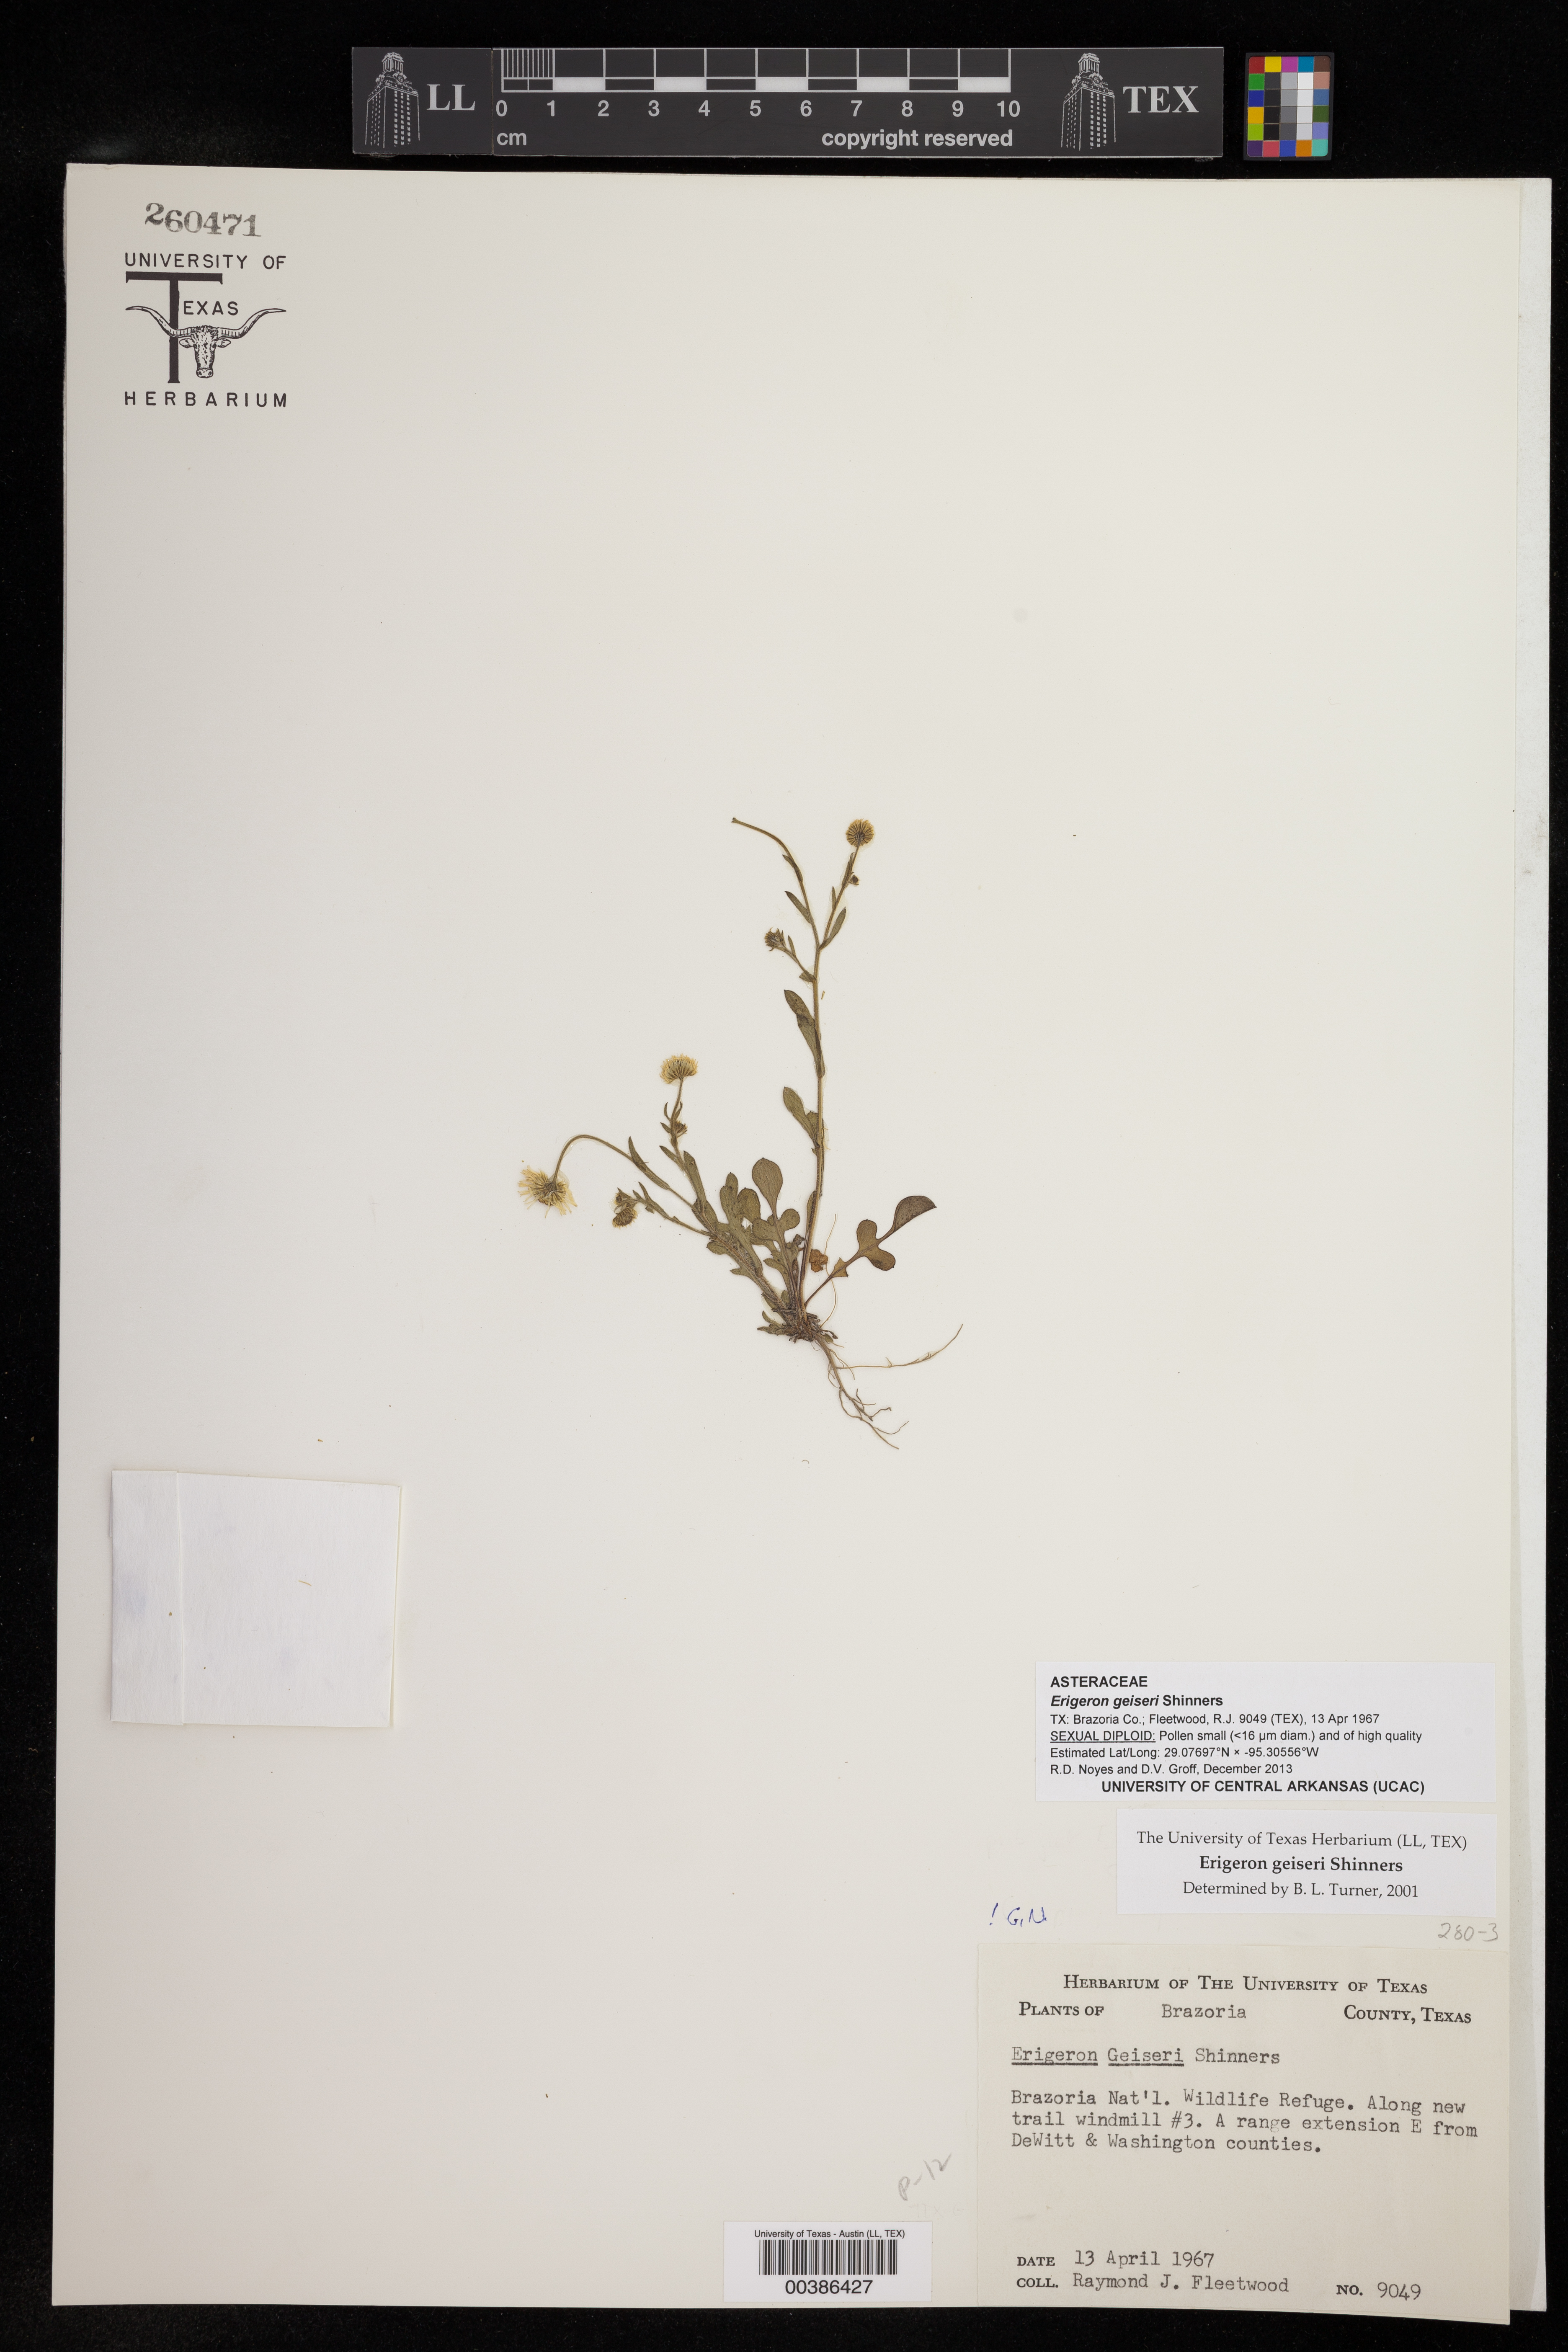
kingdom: Plantae
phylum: Tracheophyta
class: Magnoliopsida
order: Asterales
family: Asteraceae
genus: Erigeron
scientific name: Erigeron geiseri
